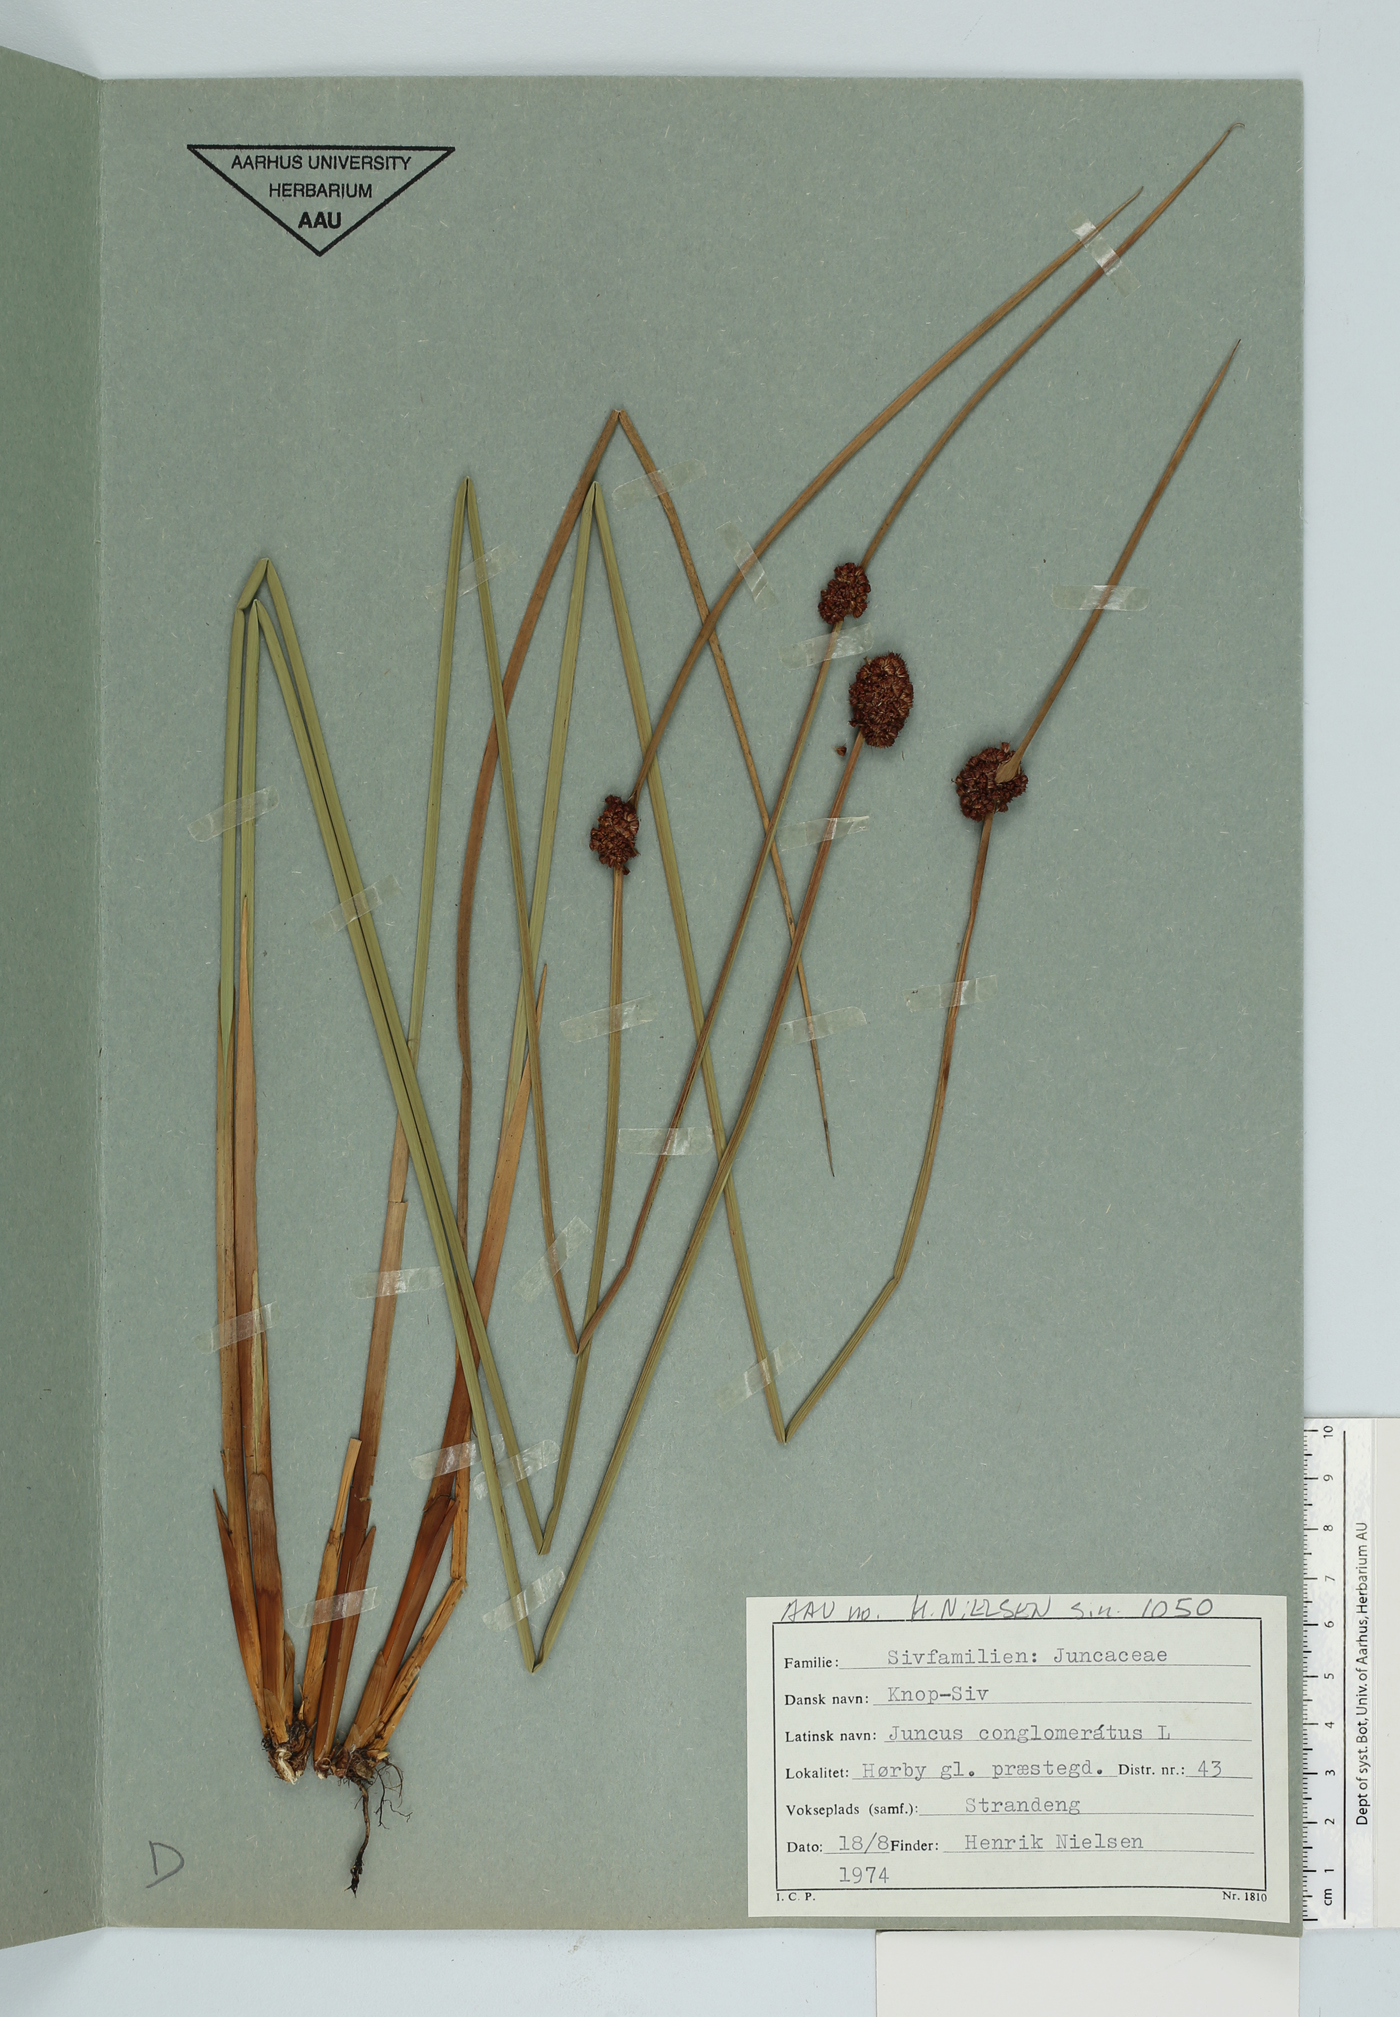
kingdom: Plantae
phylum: Tracheophyta
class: Liliopsida
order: Poales
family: Juncaceae
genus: Juncus
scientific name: Juncus conglomeratus
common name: Compact rush
